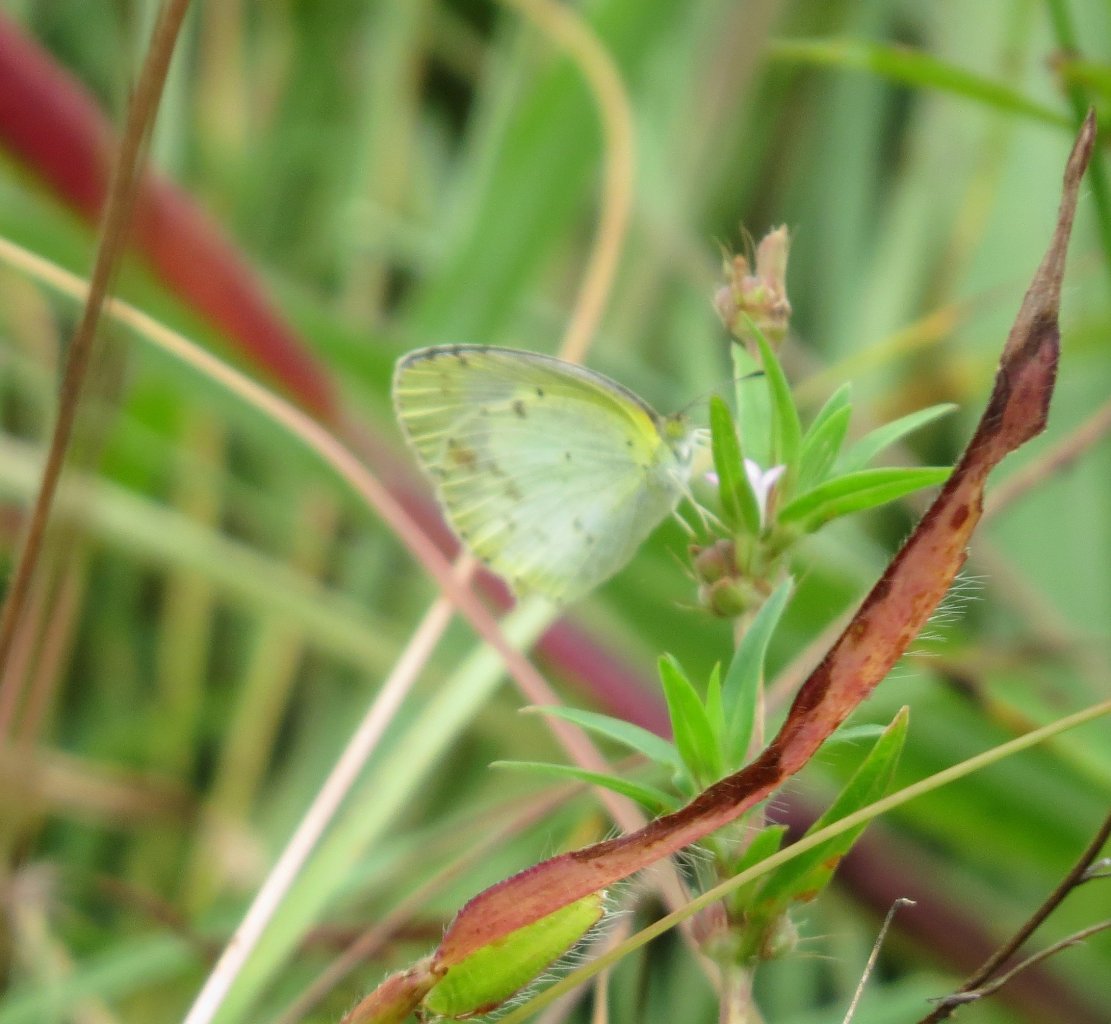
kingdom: Animalia
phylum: Arthropoda
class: Insecta
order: Lepidoptera
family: Pieridae
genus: Pyrisitia
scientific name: Pyrisitia lisa
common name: Little Yellow
